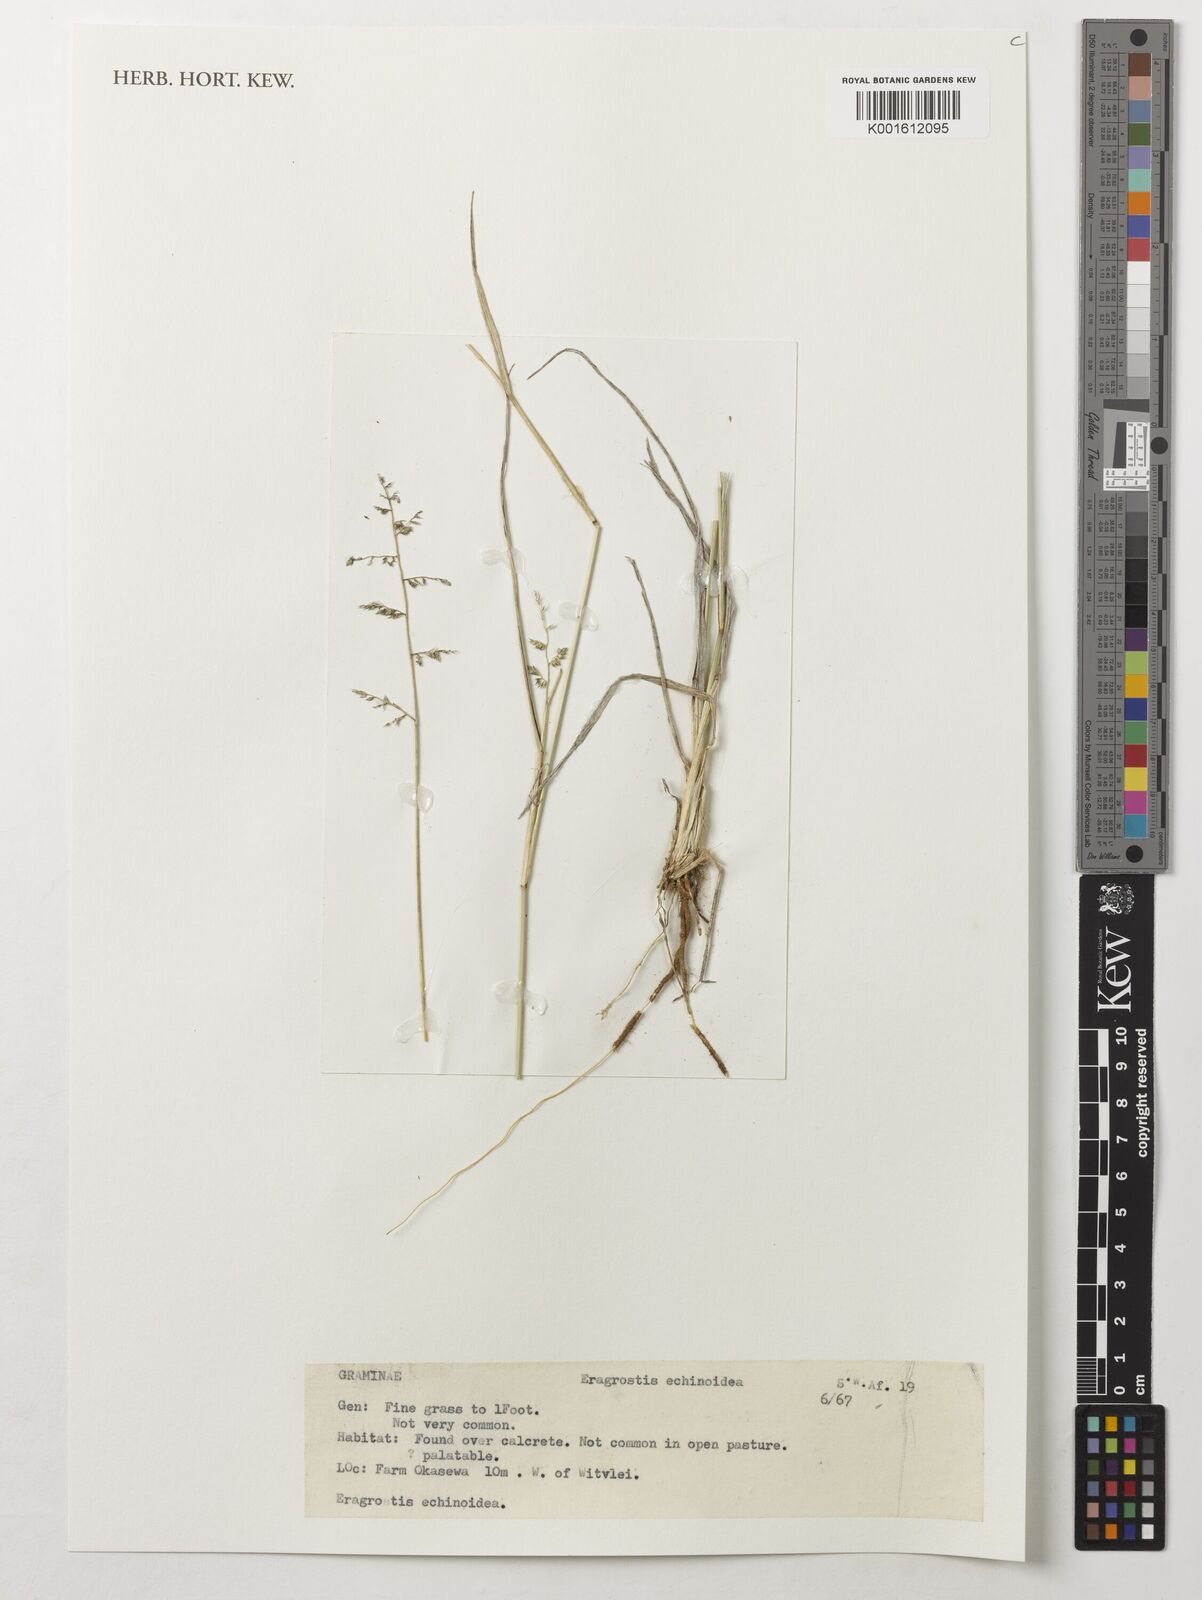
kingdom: Plantae
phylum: Tracheophyta
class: Liliopsida
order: Poales
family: Poaceae
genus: Eragrostis
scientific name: Eragrostis echinochloidea
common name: African lovegrass
